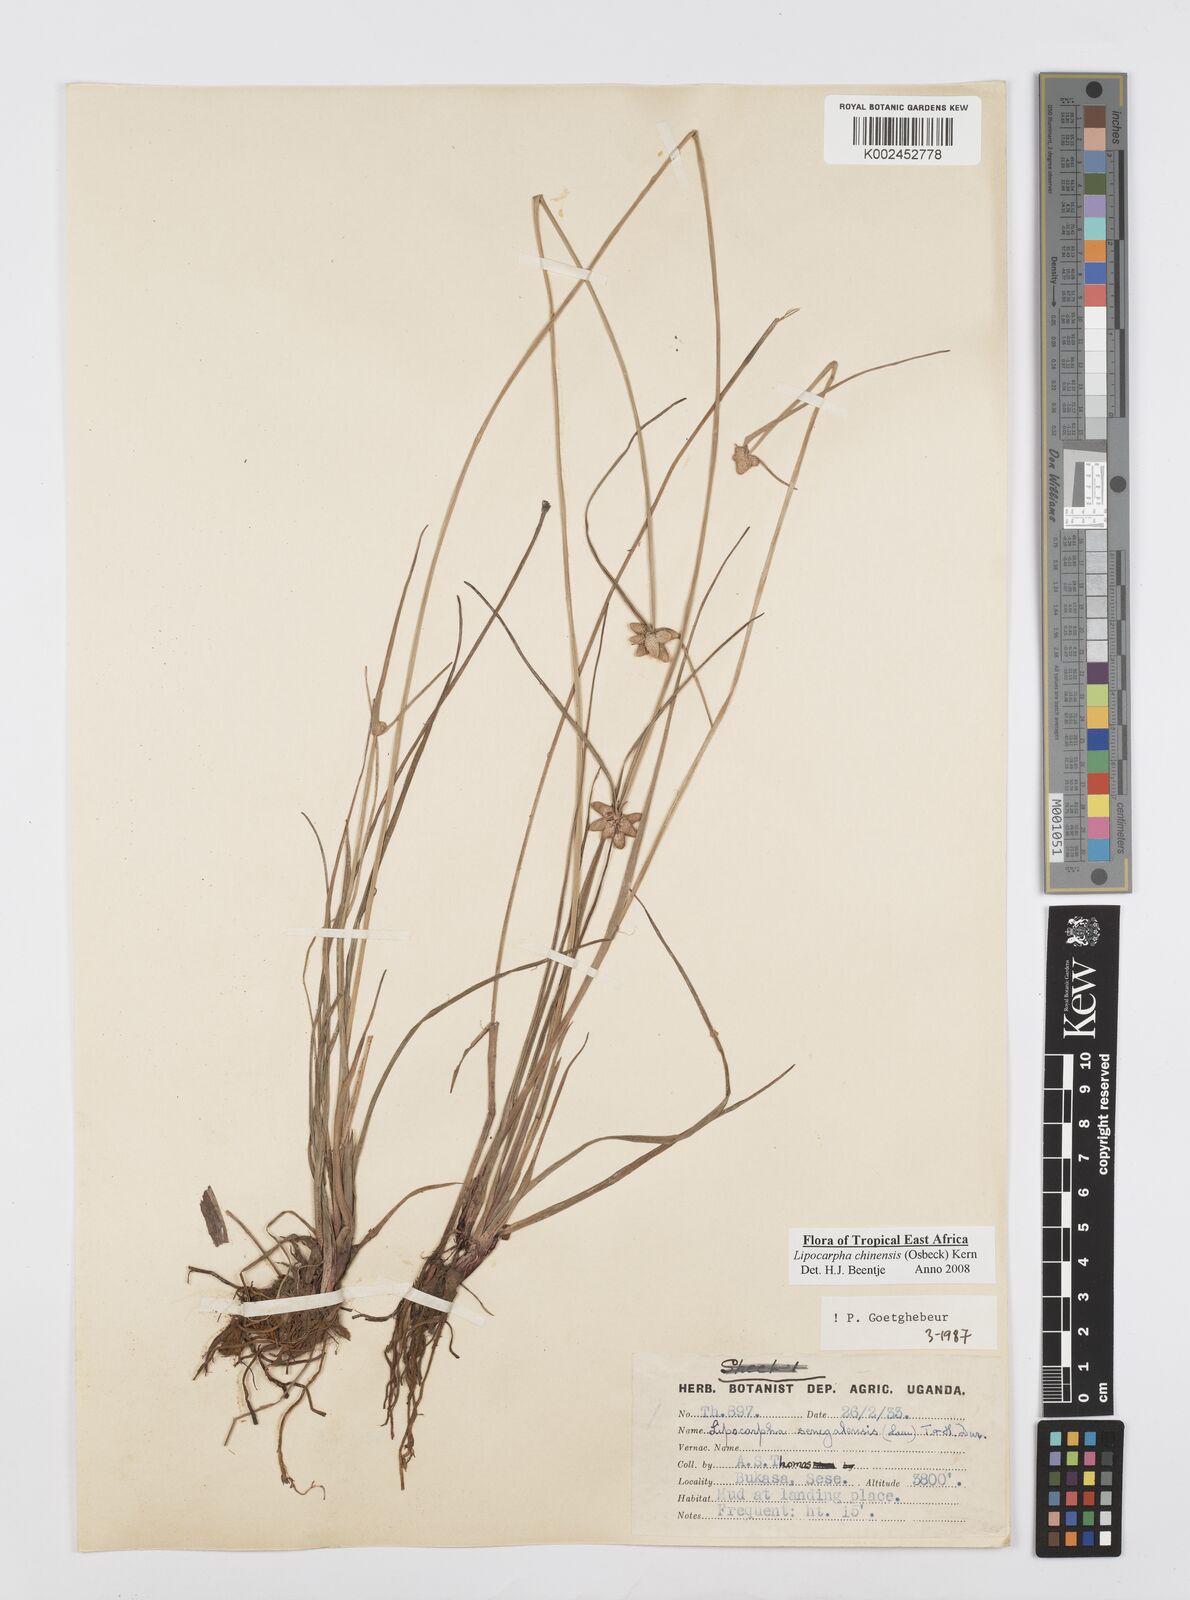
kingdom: Plantae
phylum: Tracheophyta
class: Liliopsida
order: Poales
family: Cyperaceae
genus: Cyperus
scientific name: Cyperus albescens
